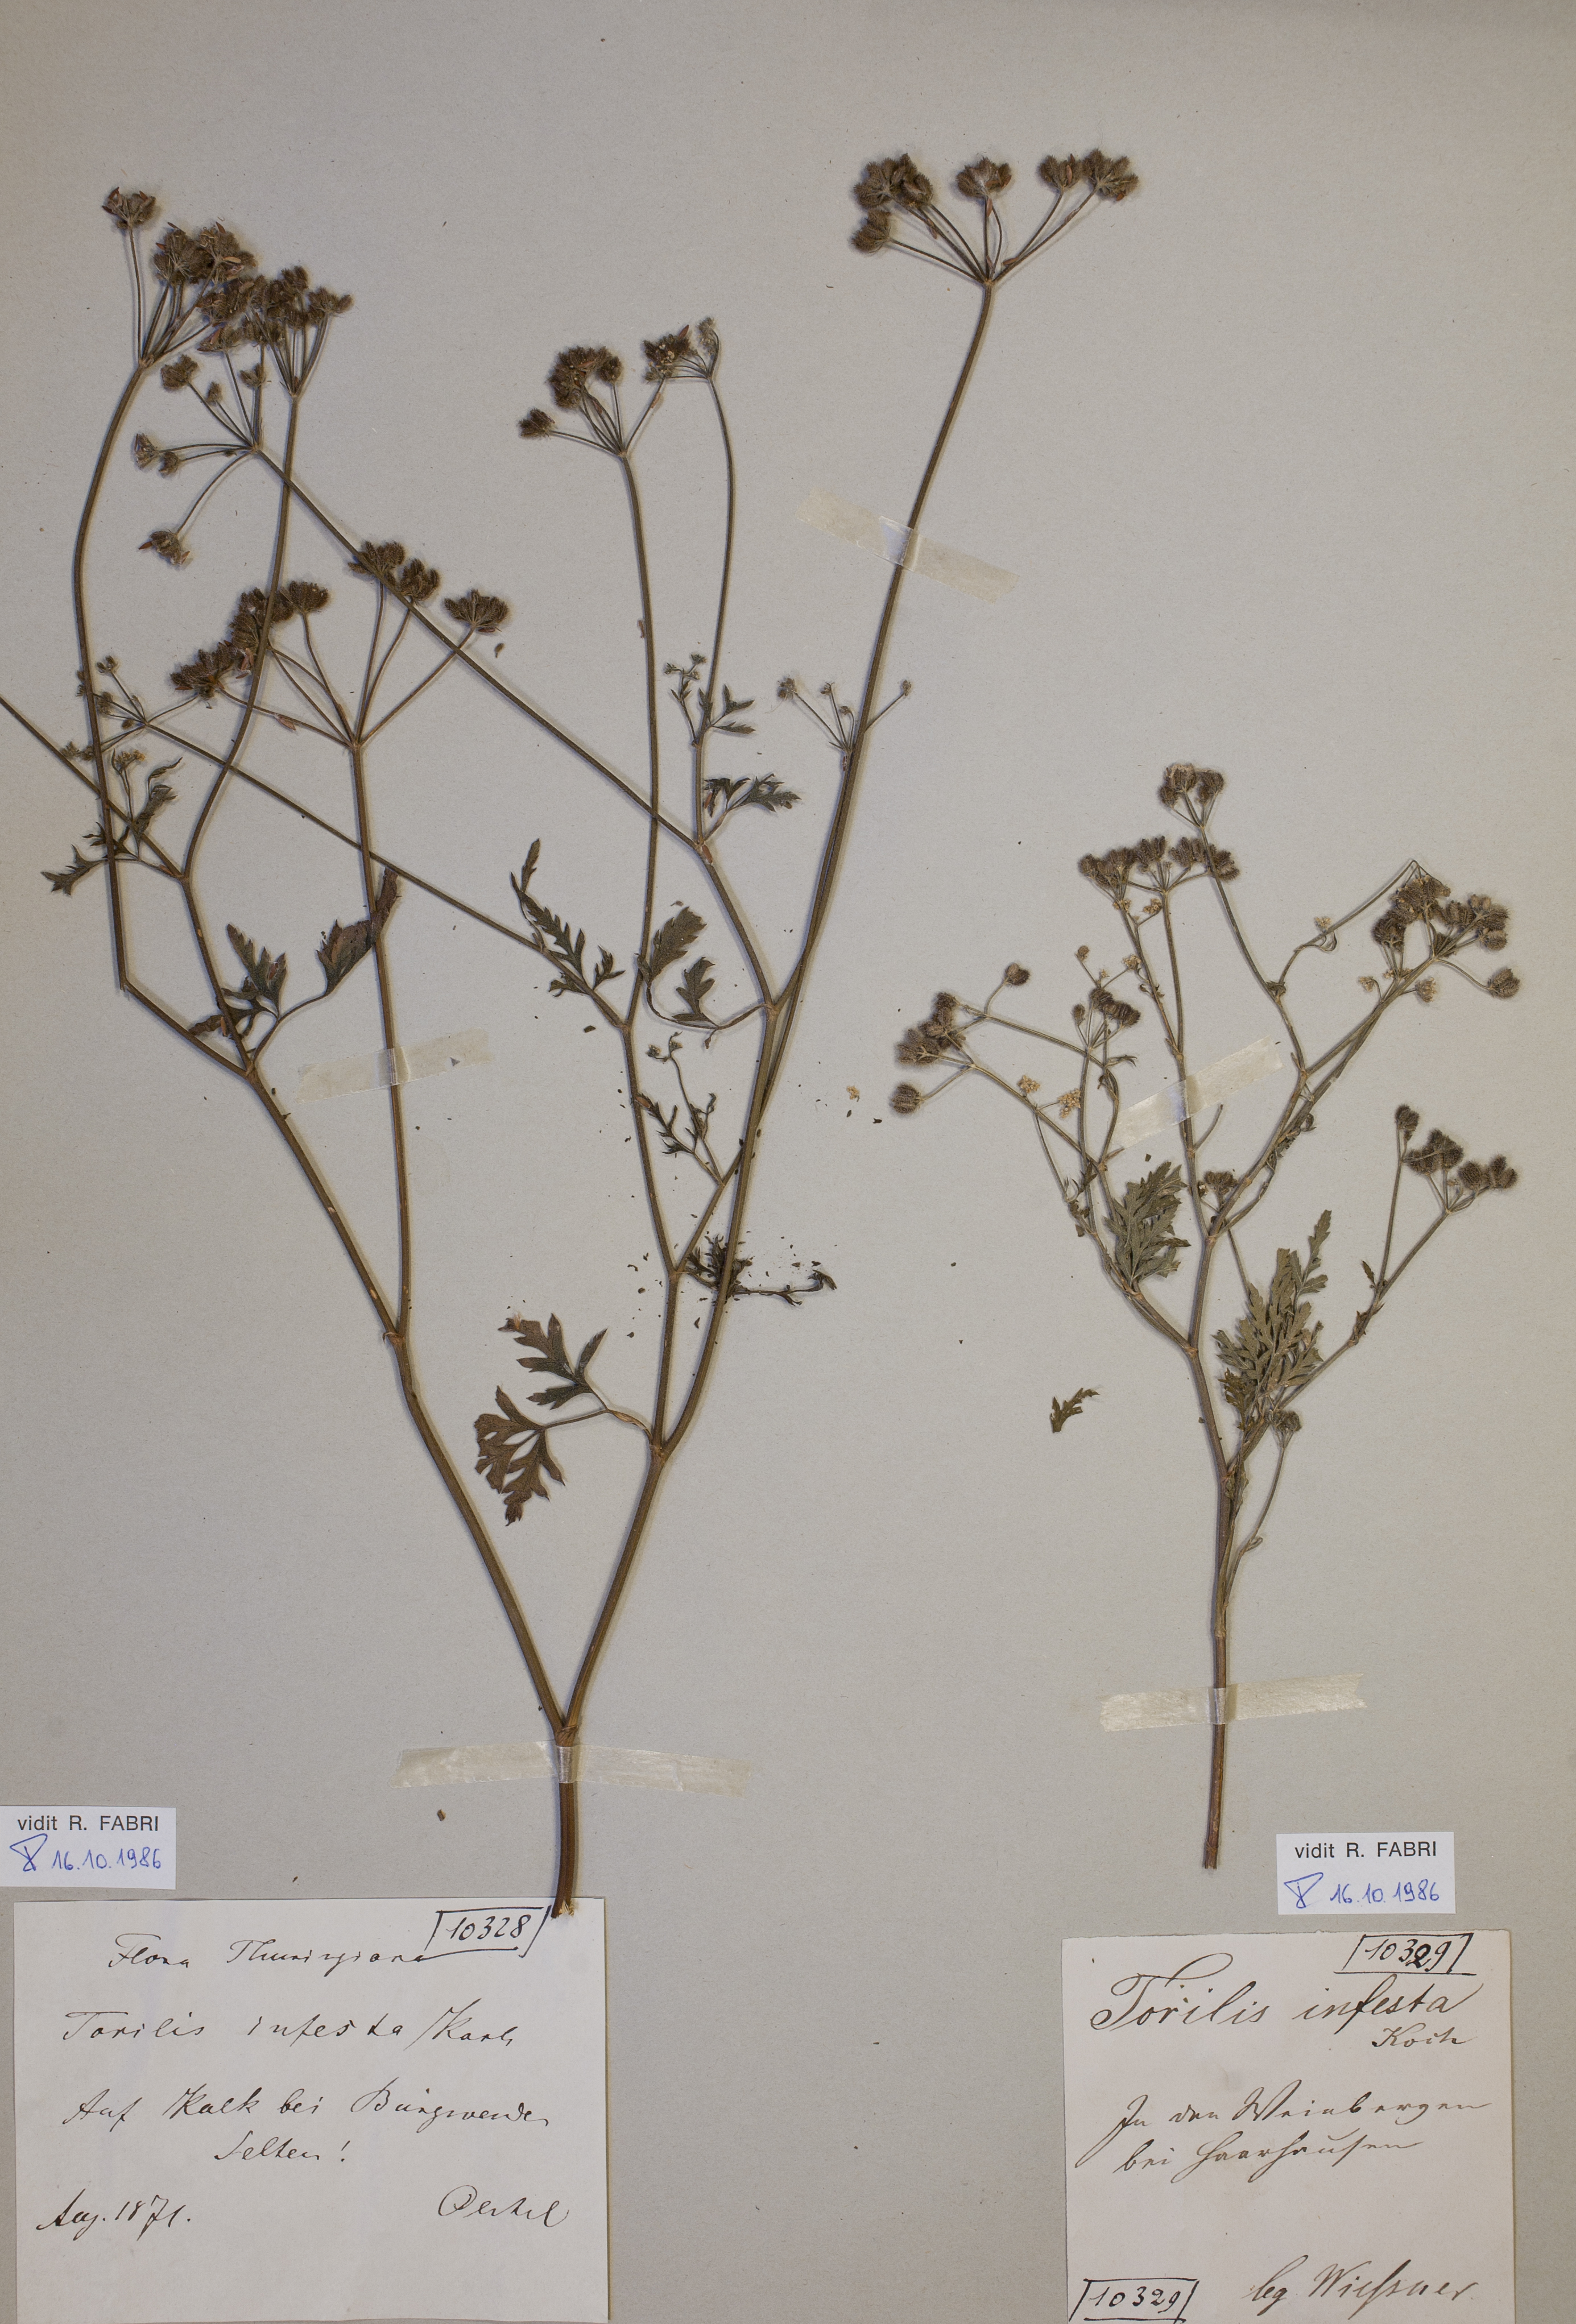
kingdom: Plantae
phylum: Tracheophyta
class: Magnoliopsida
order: Apiales
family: Apiaceae
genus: Torilis
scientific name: Torilis arvensis
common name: Spreading hedge-parsley
